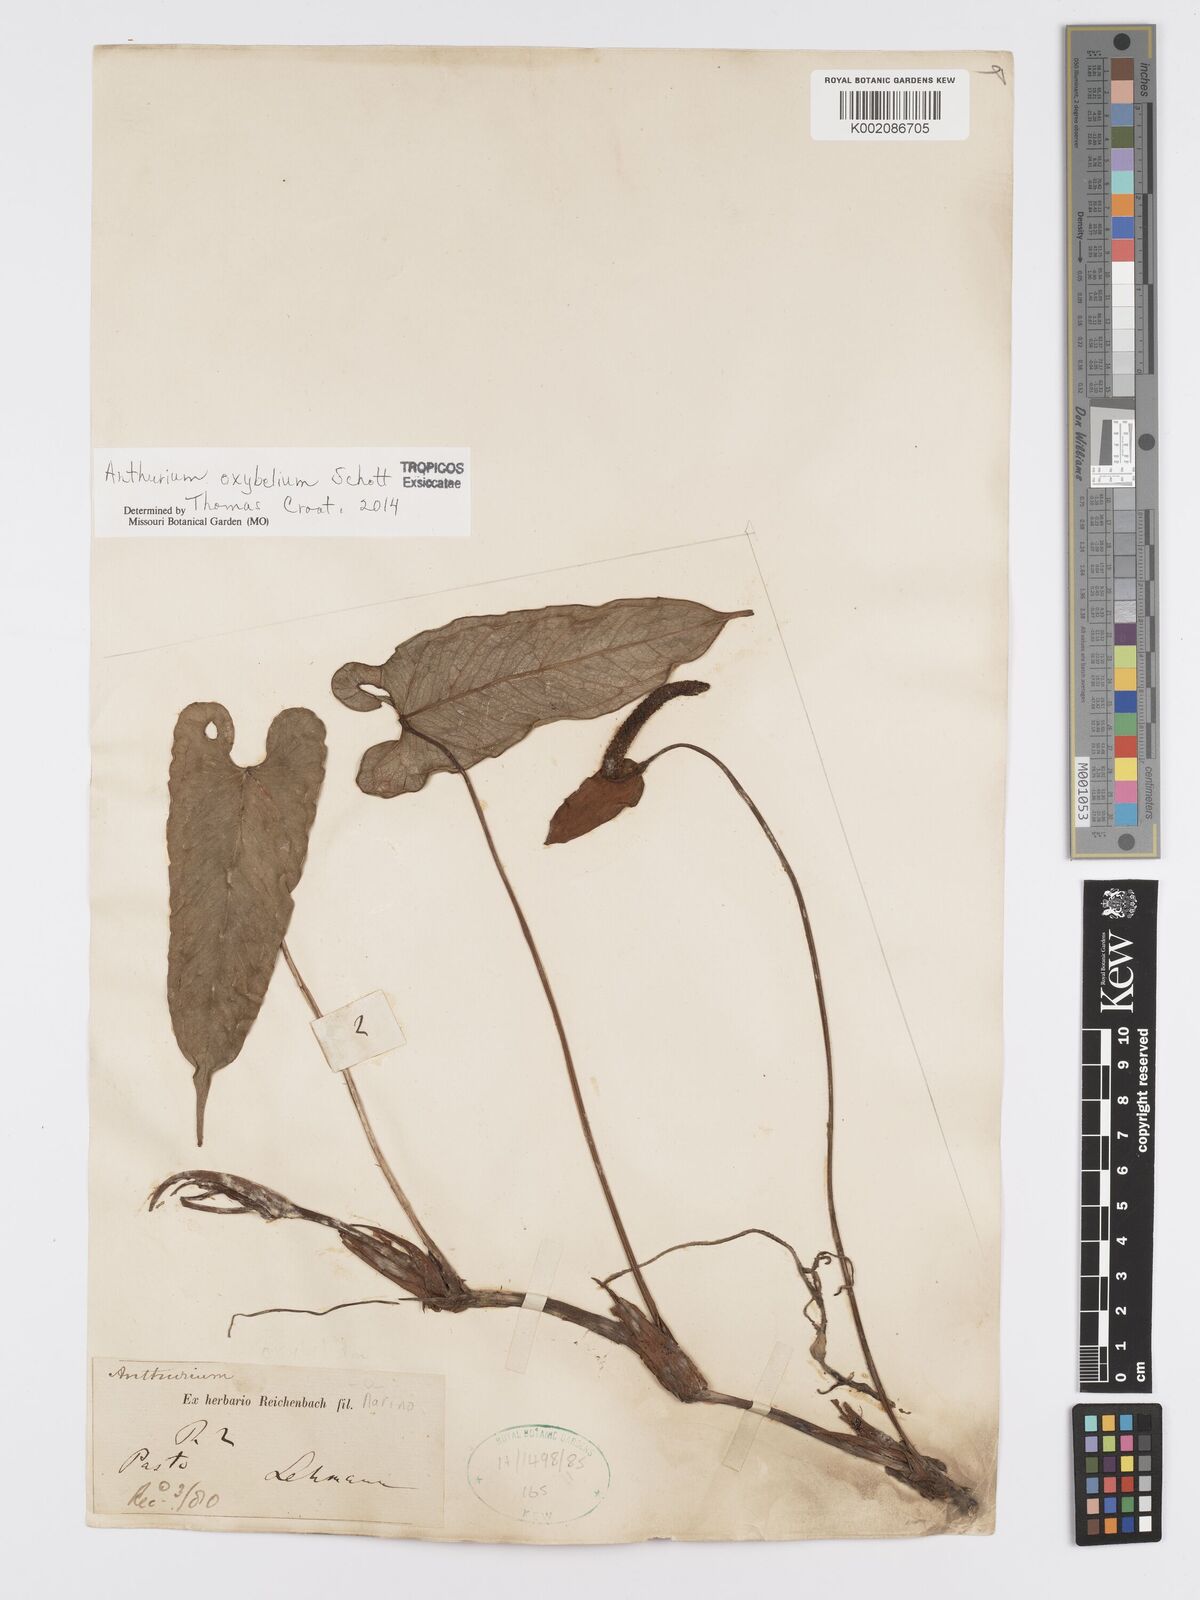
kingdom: Plantae
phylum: Tracheophyta
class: Liliopsida
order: Alismatales
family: Araceae
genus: Anthurium
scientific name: Anthurium oxybelium
